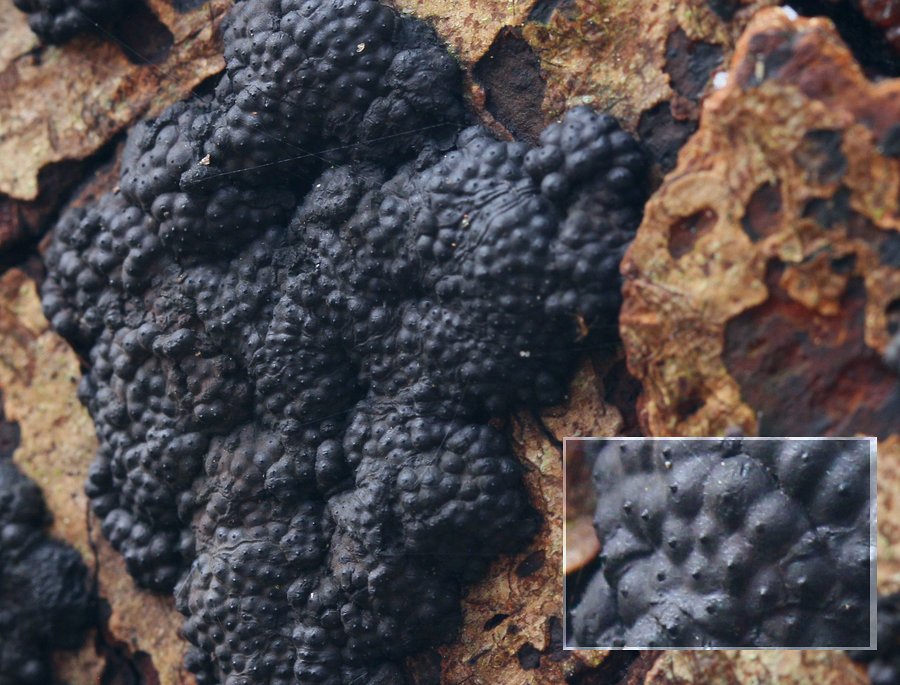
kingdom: Fungi
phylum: Ascomycota
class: Sordariomycetes
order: Xylariales
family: Hypoxylaceae
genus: Jackrogersella
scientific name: Jackrogersella multiformis
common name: foranderlig kulbær
